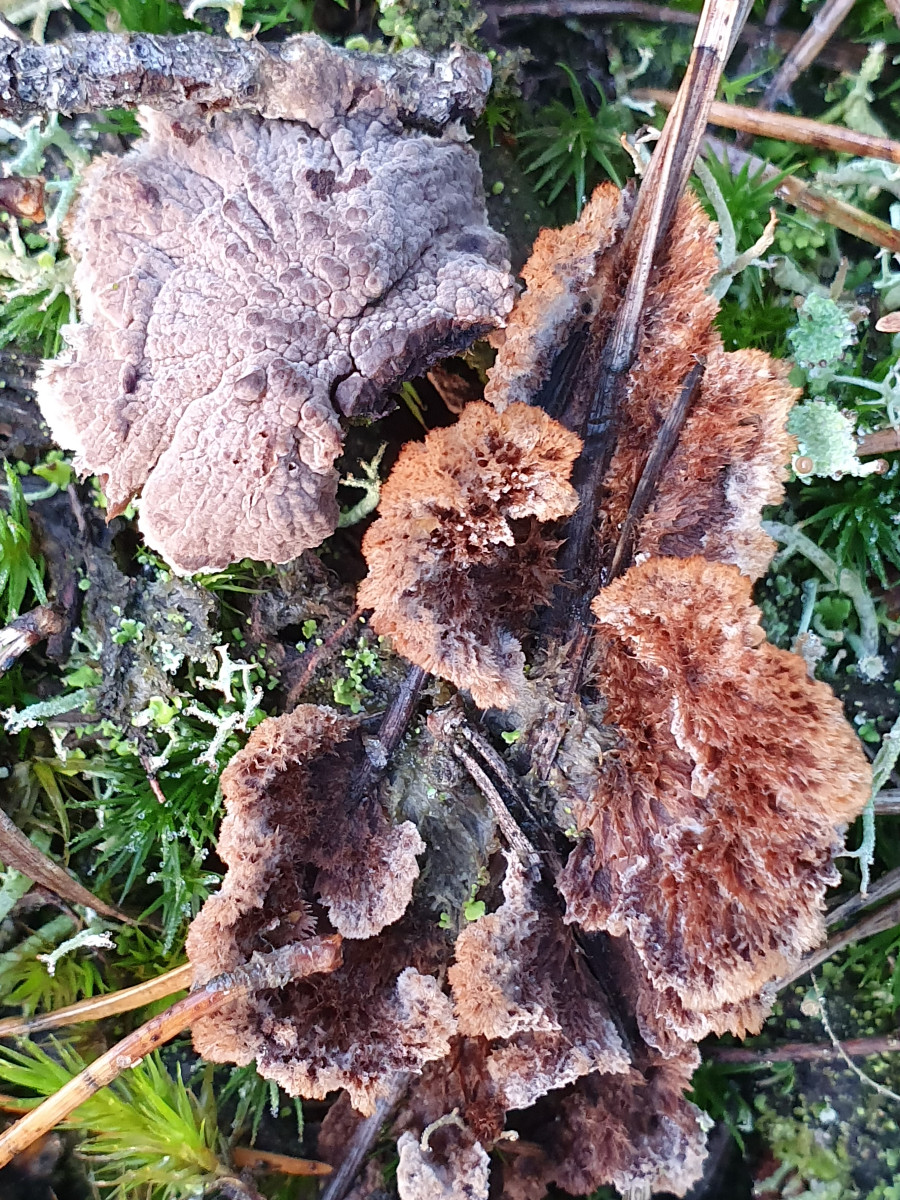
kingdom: Fungi
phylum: Basidiomycota
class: Agaricomycetes
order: Thelephorales
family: Thelephoraceae
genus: Thelephora
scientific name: Thelephora terrestris
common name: fliget frynsesvamp
